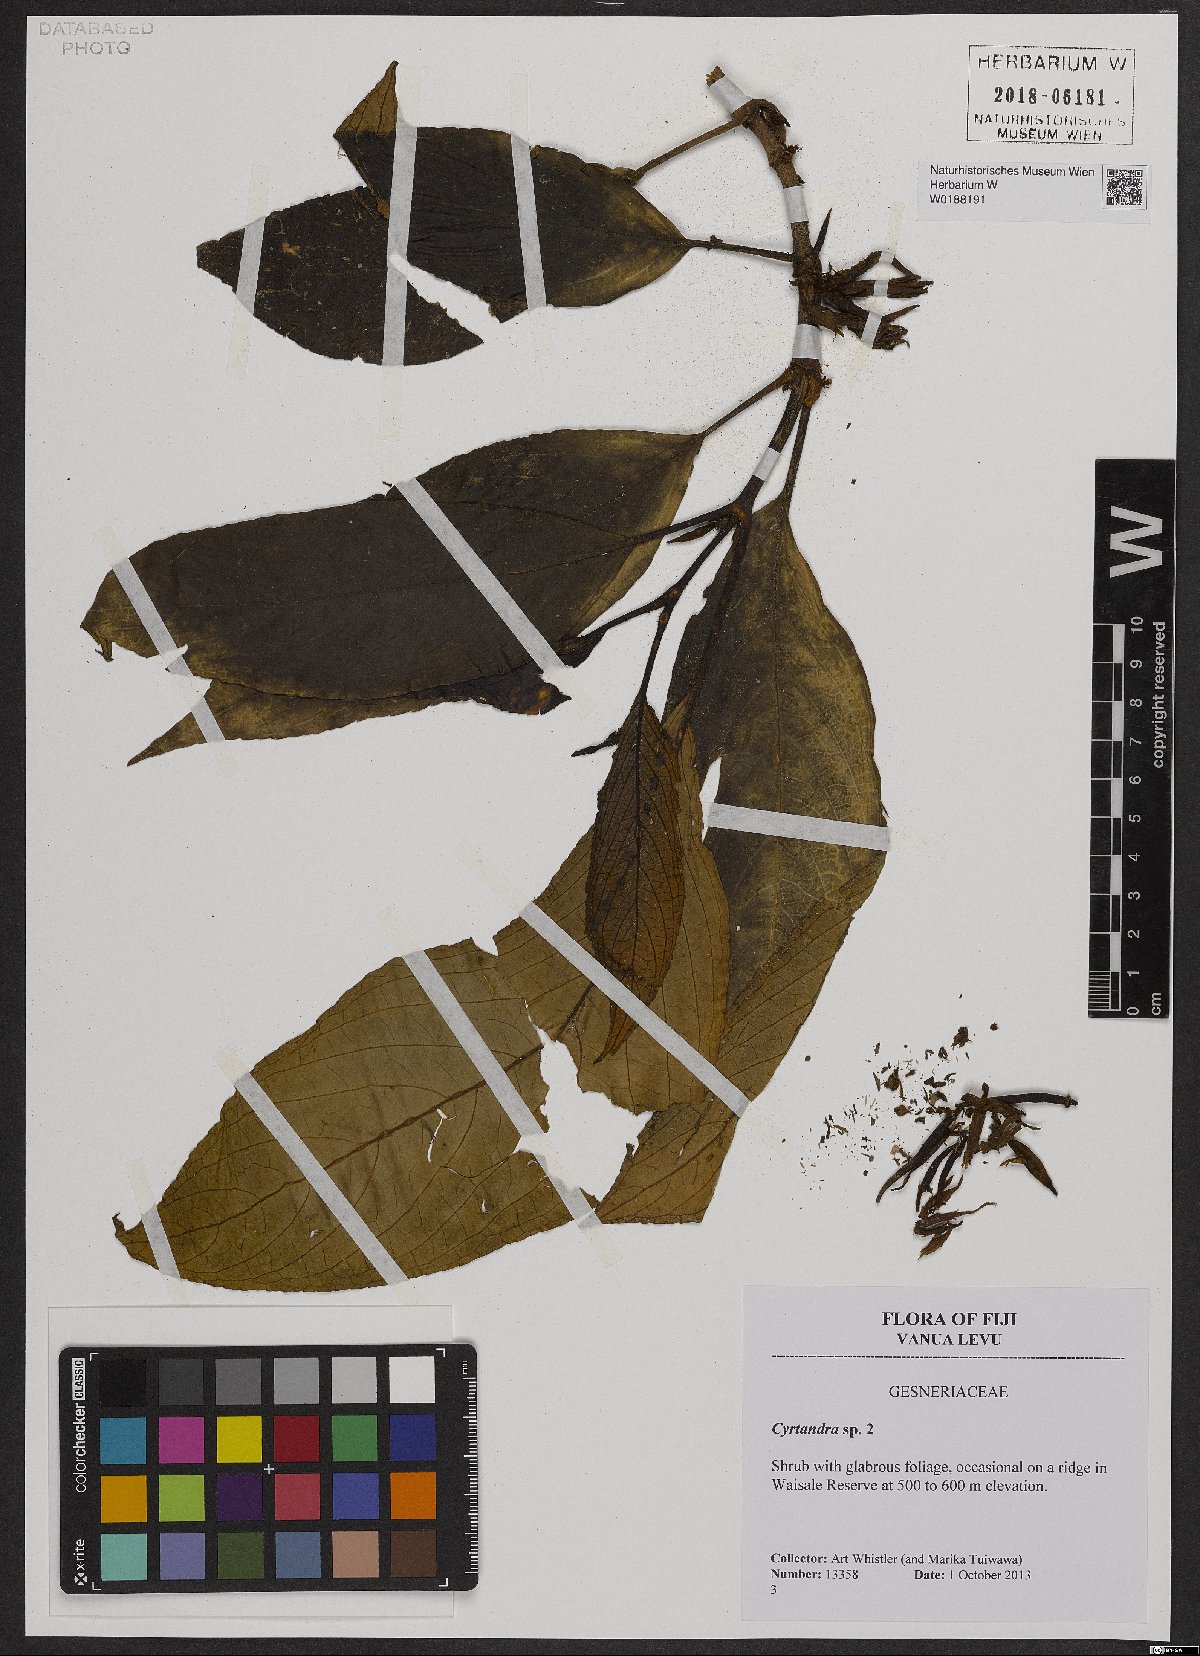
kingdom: Plantae
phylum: Tracheophyta
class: Magnoliopsida
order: Lamiales
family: Gesneriaceae
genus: Cyrtandra
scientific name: Cyrtandra
